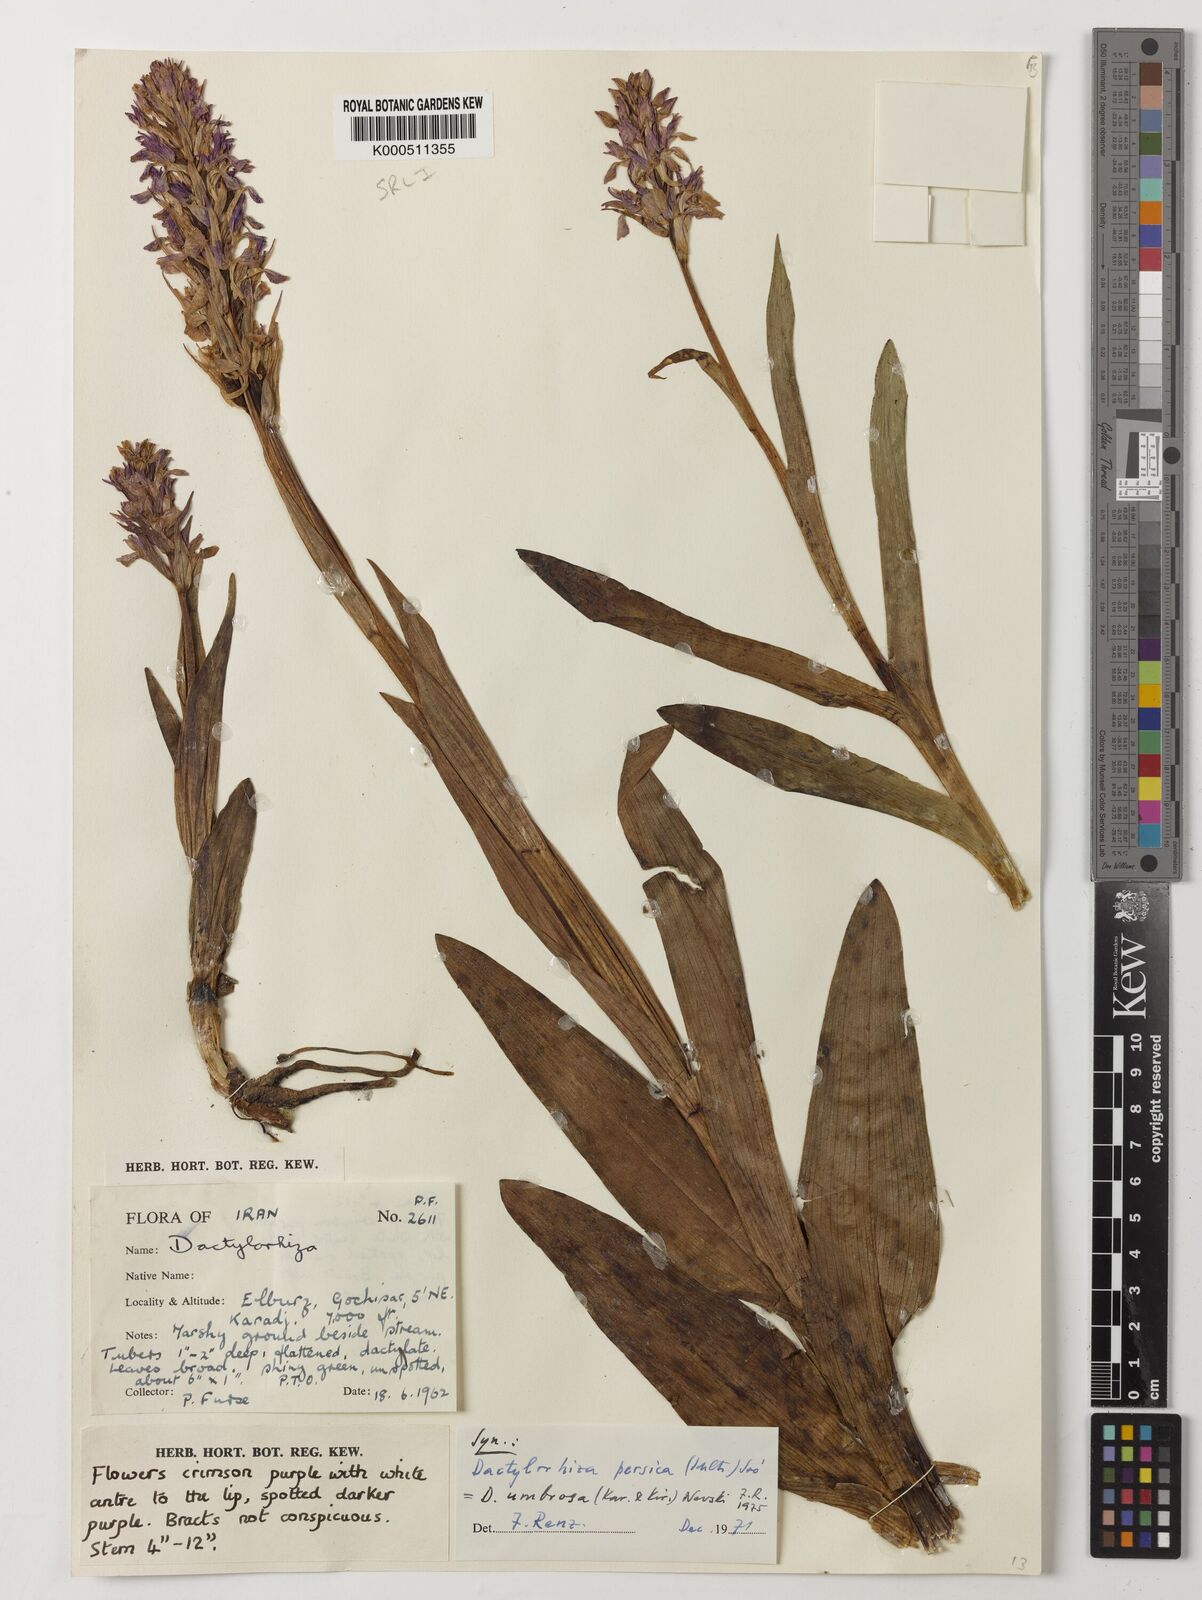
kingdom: Plantae
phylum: Tracheophyta
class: Liliopsida
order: Asparagales
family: Orchidaceae
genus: Dactylorhiza
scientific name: Dactylorhiza
